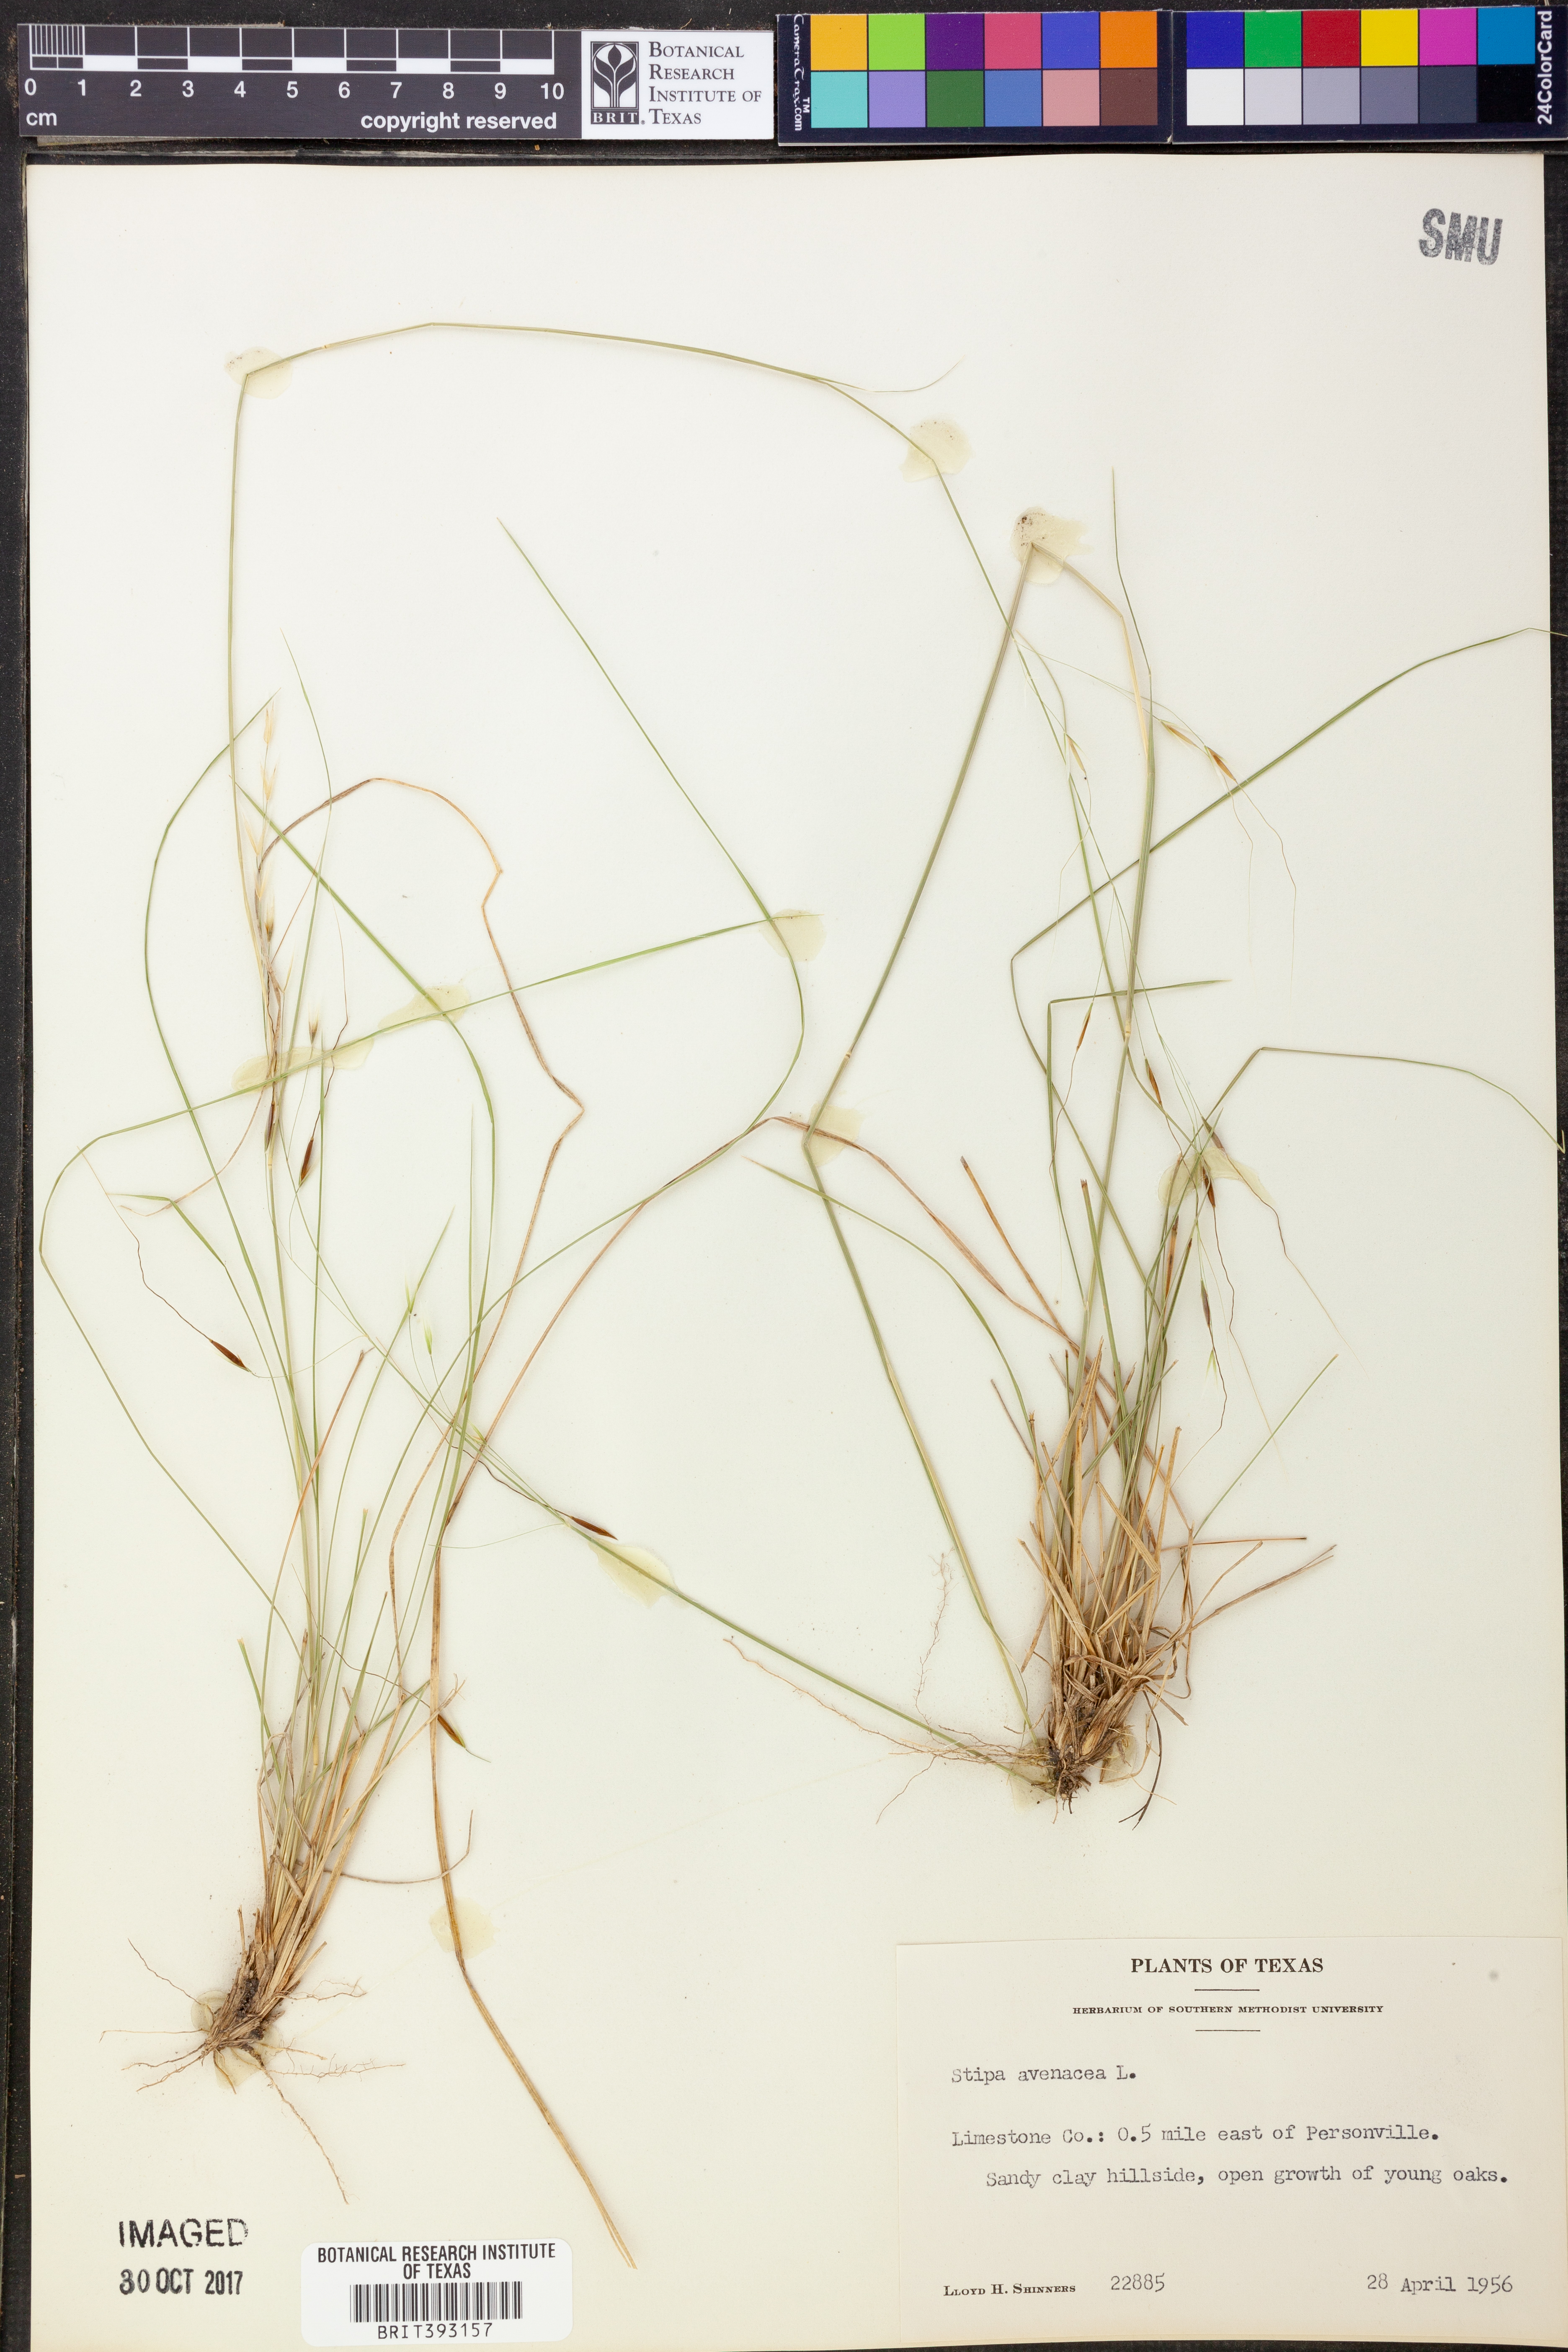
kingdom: Plantae
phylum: Tracheophyta
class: Liliopsida
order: Poales
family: Poaceae
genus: Piptochaetium
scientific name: Piptochaetium avenaceum
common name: Black bunchgrass
